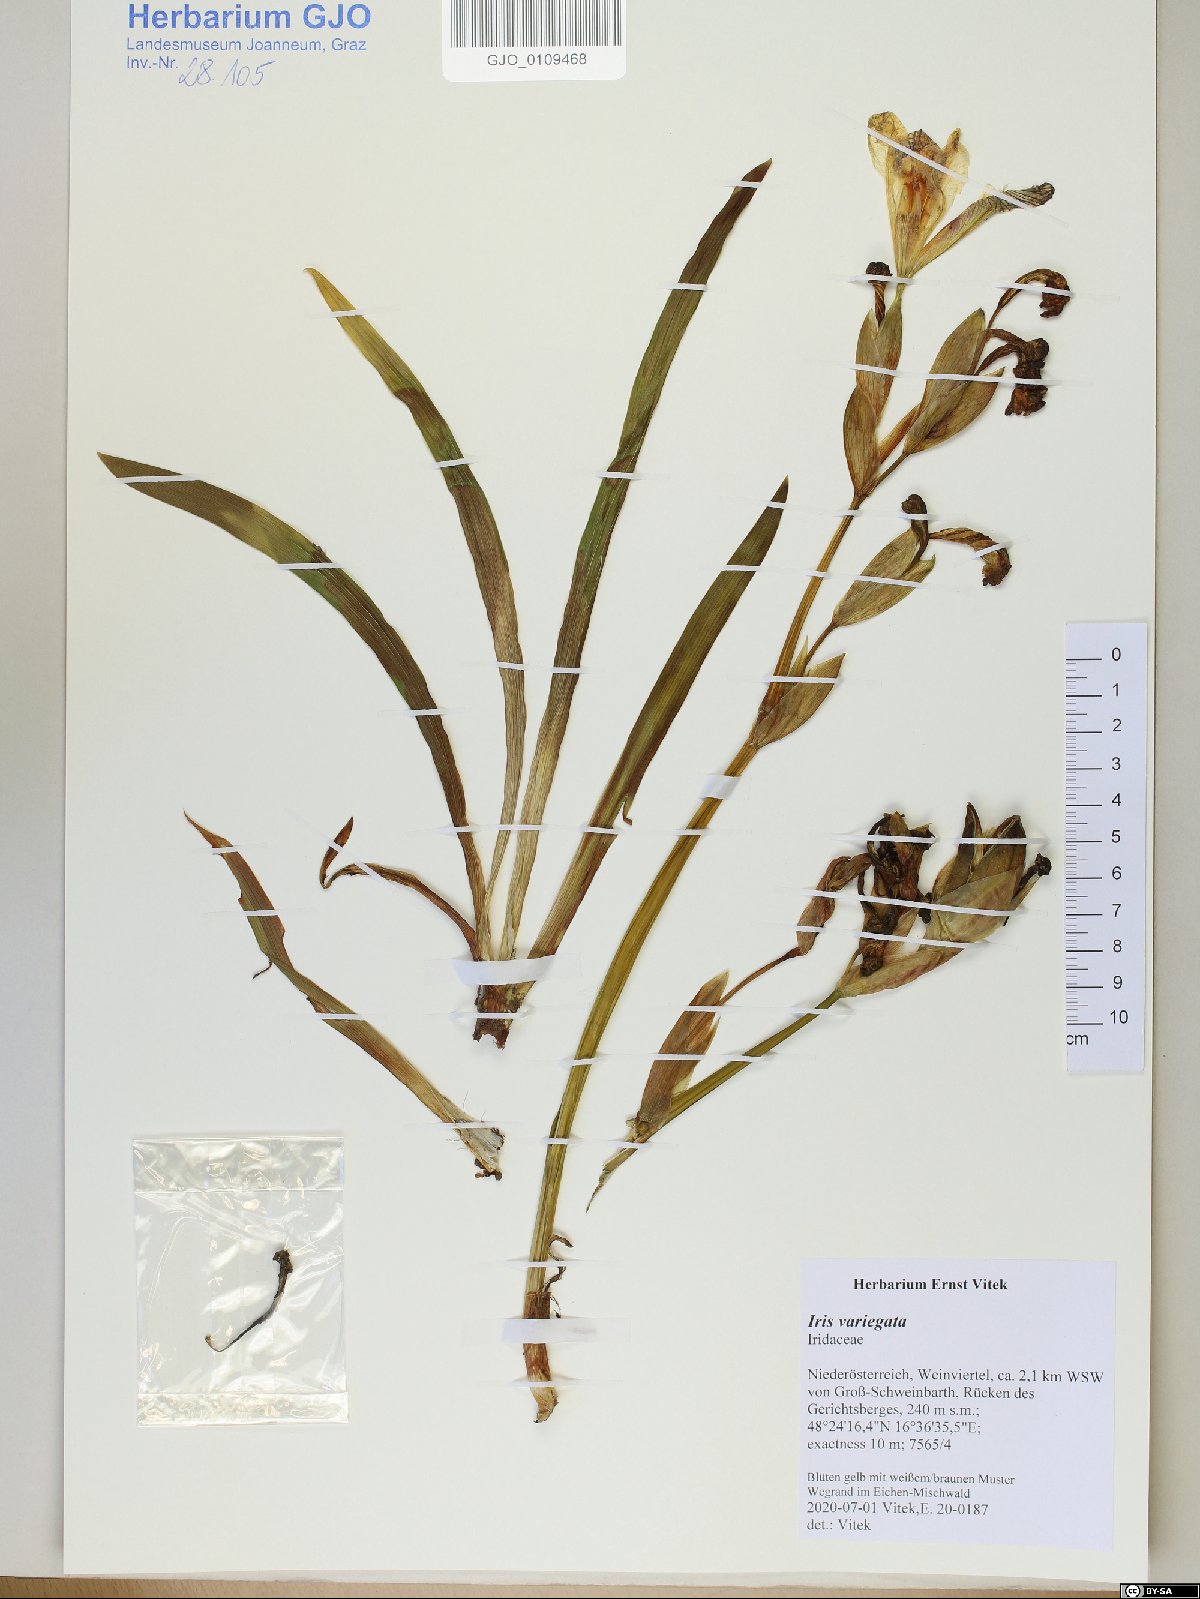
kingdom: Plantae
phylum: Tracheophyta
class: Liliopsida
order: Asparagales
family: Iridaceae
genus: Iris
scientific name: Iris variegata
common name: Hungarian iris
